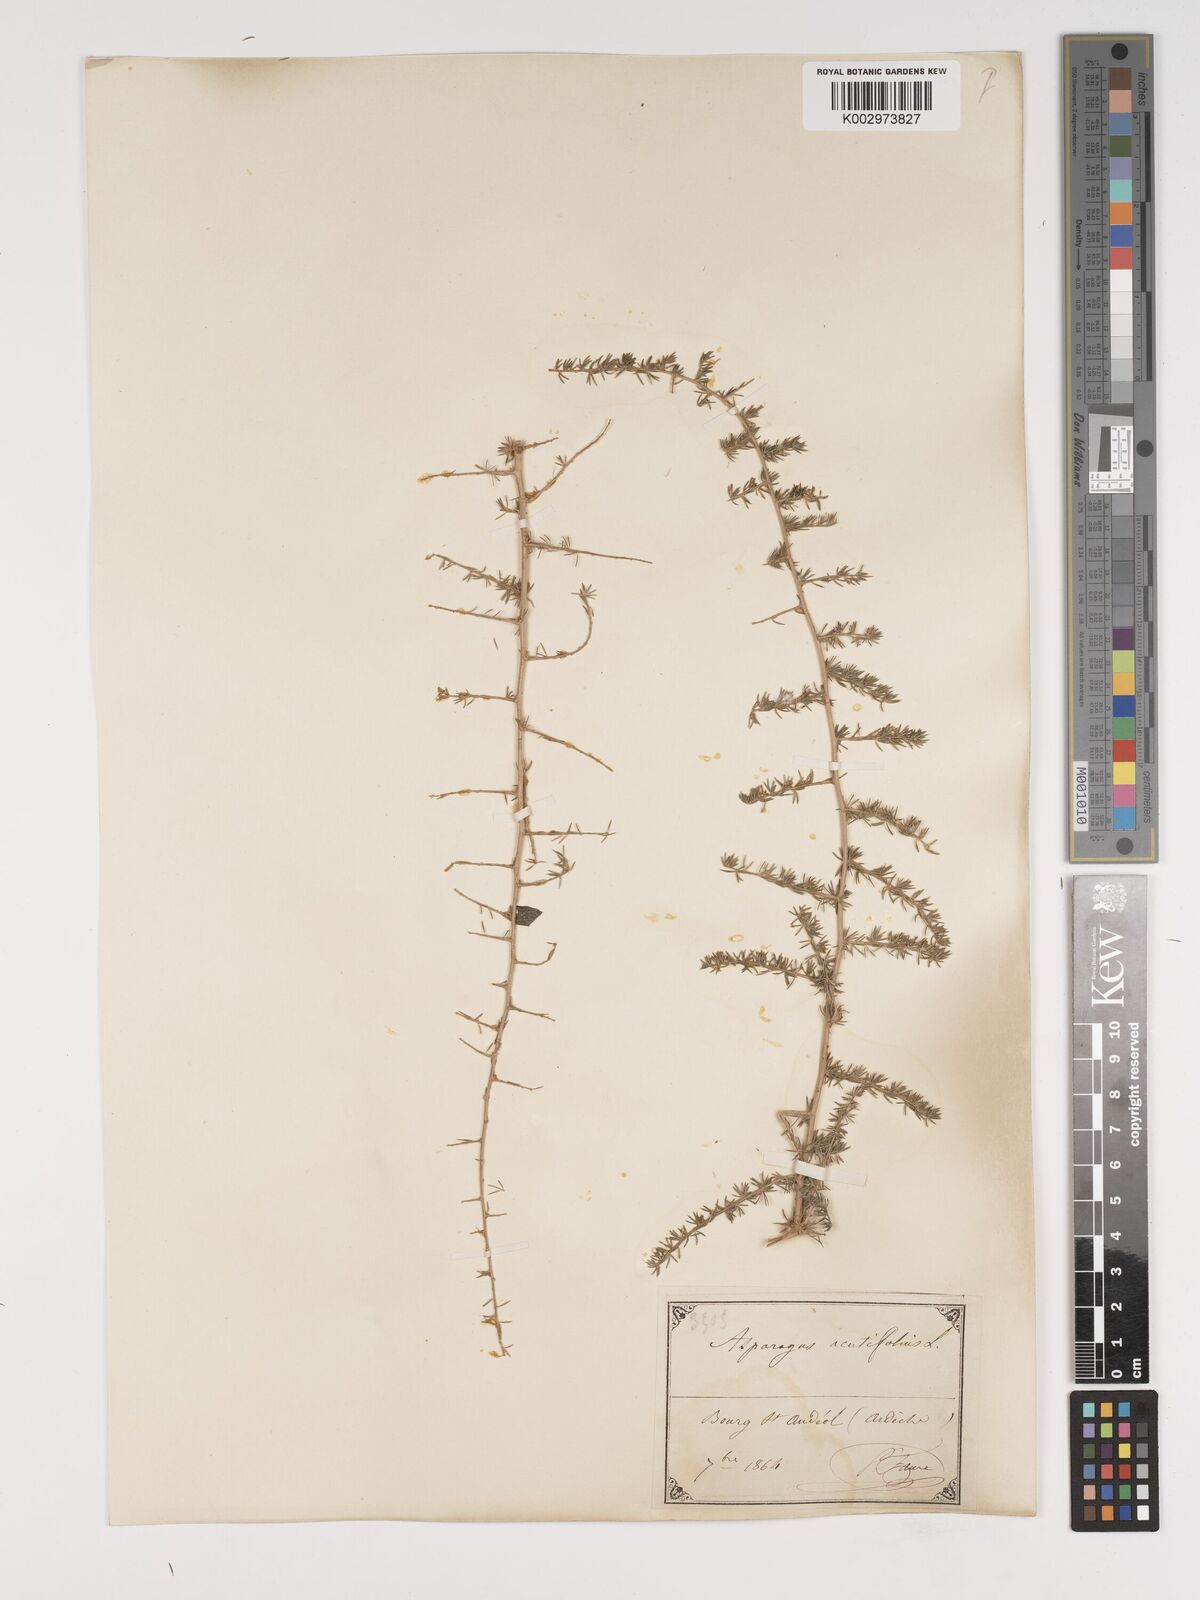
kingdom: Plantae
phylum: Tracheophyta
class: Liliopsida
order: Asparagales
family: Asparagaceae
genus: Asparagus
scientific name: Asparagus aethiopicus
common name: Sprenger's asparagus fern
